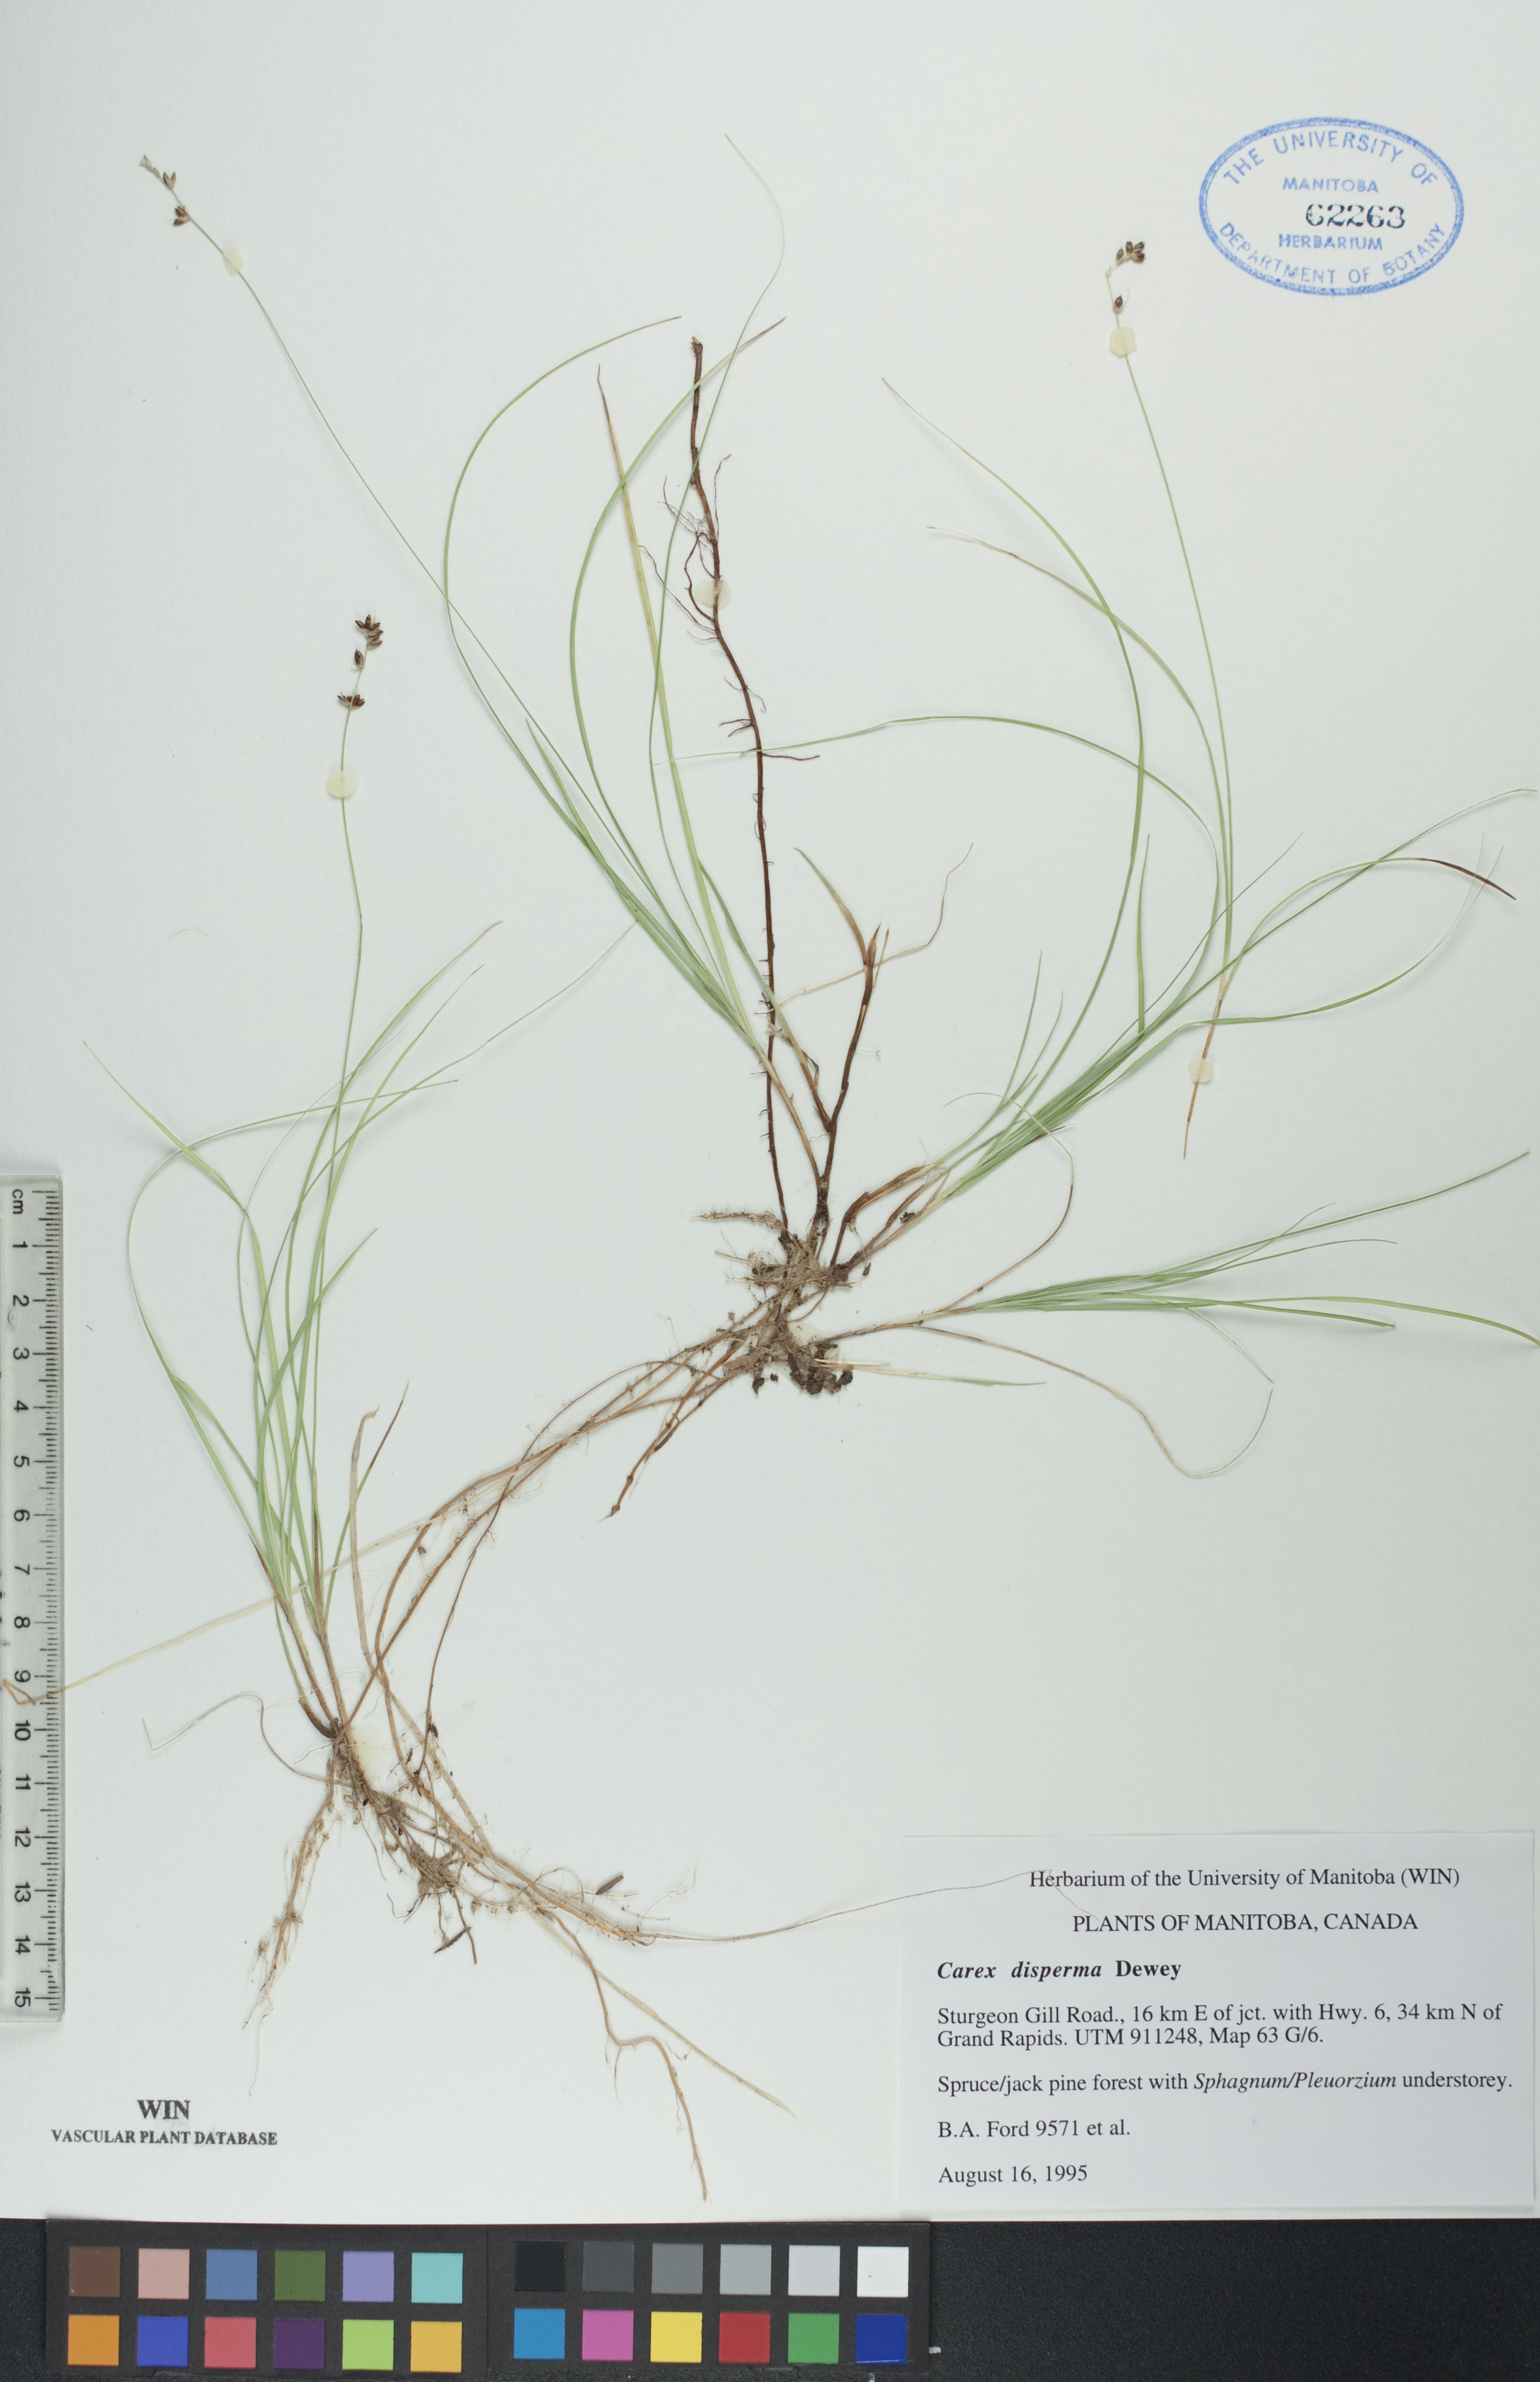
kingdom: Plantae
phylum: Tracheophyta
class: Liliopsida
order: Poales
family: Cyperaceae
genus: Carex
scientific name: Carex disperma
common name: Short-leaved sedge
